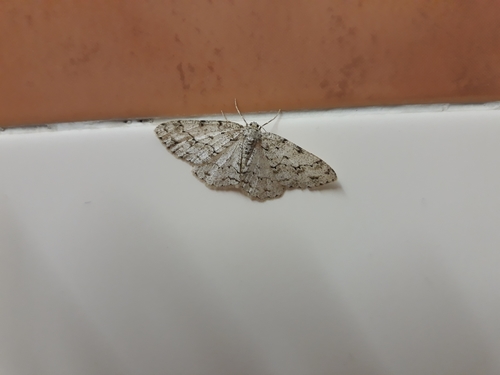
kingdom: Animalia
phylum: Arthropoda
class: Insecta
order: Lepidoptera
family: Geometridae
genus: Ectropis
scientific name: Ectropis crepuscularia
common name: Engrailed
